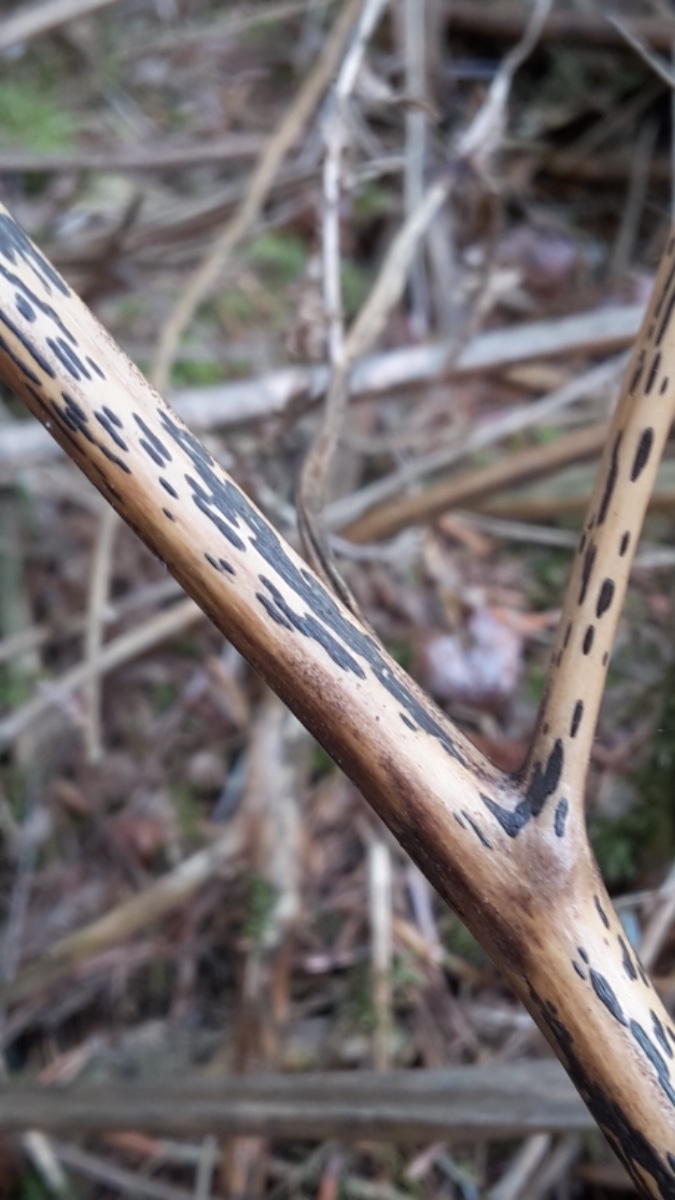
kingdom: Fungi
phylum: Ascomycota
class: Dothideomycetes
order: Pleosporales
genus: Rhopographus
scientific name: Rhopographus filicinus
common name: Bracken map
